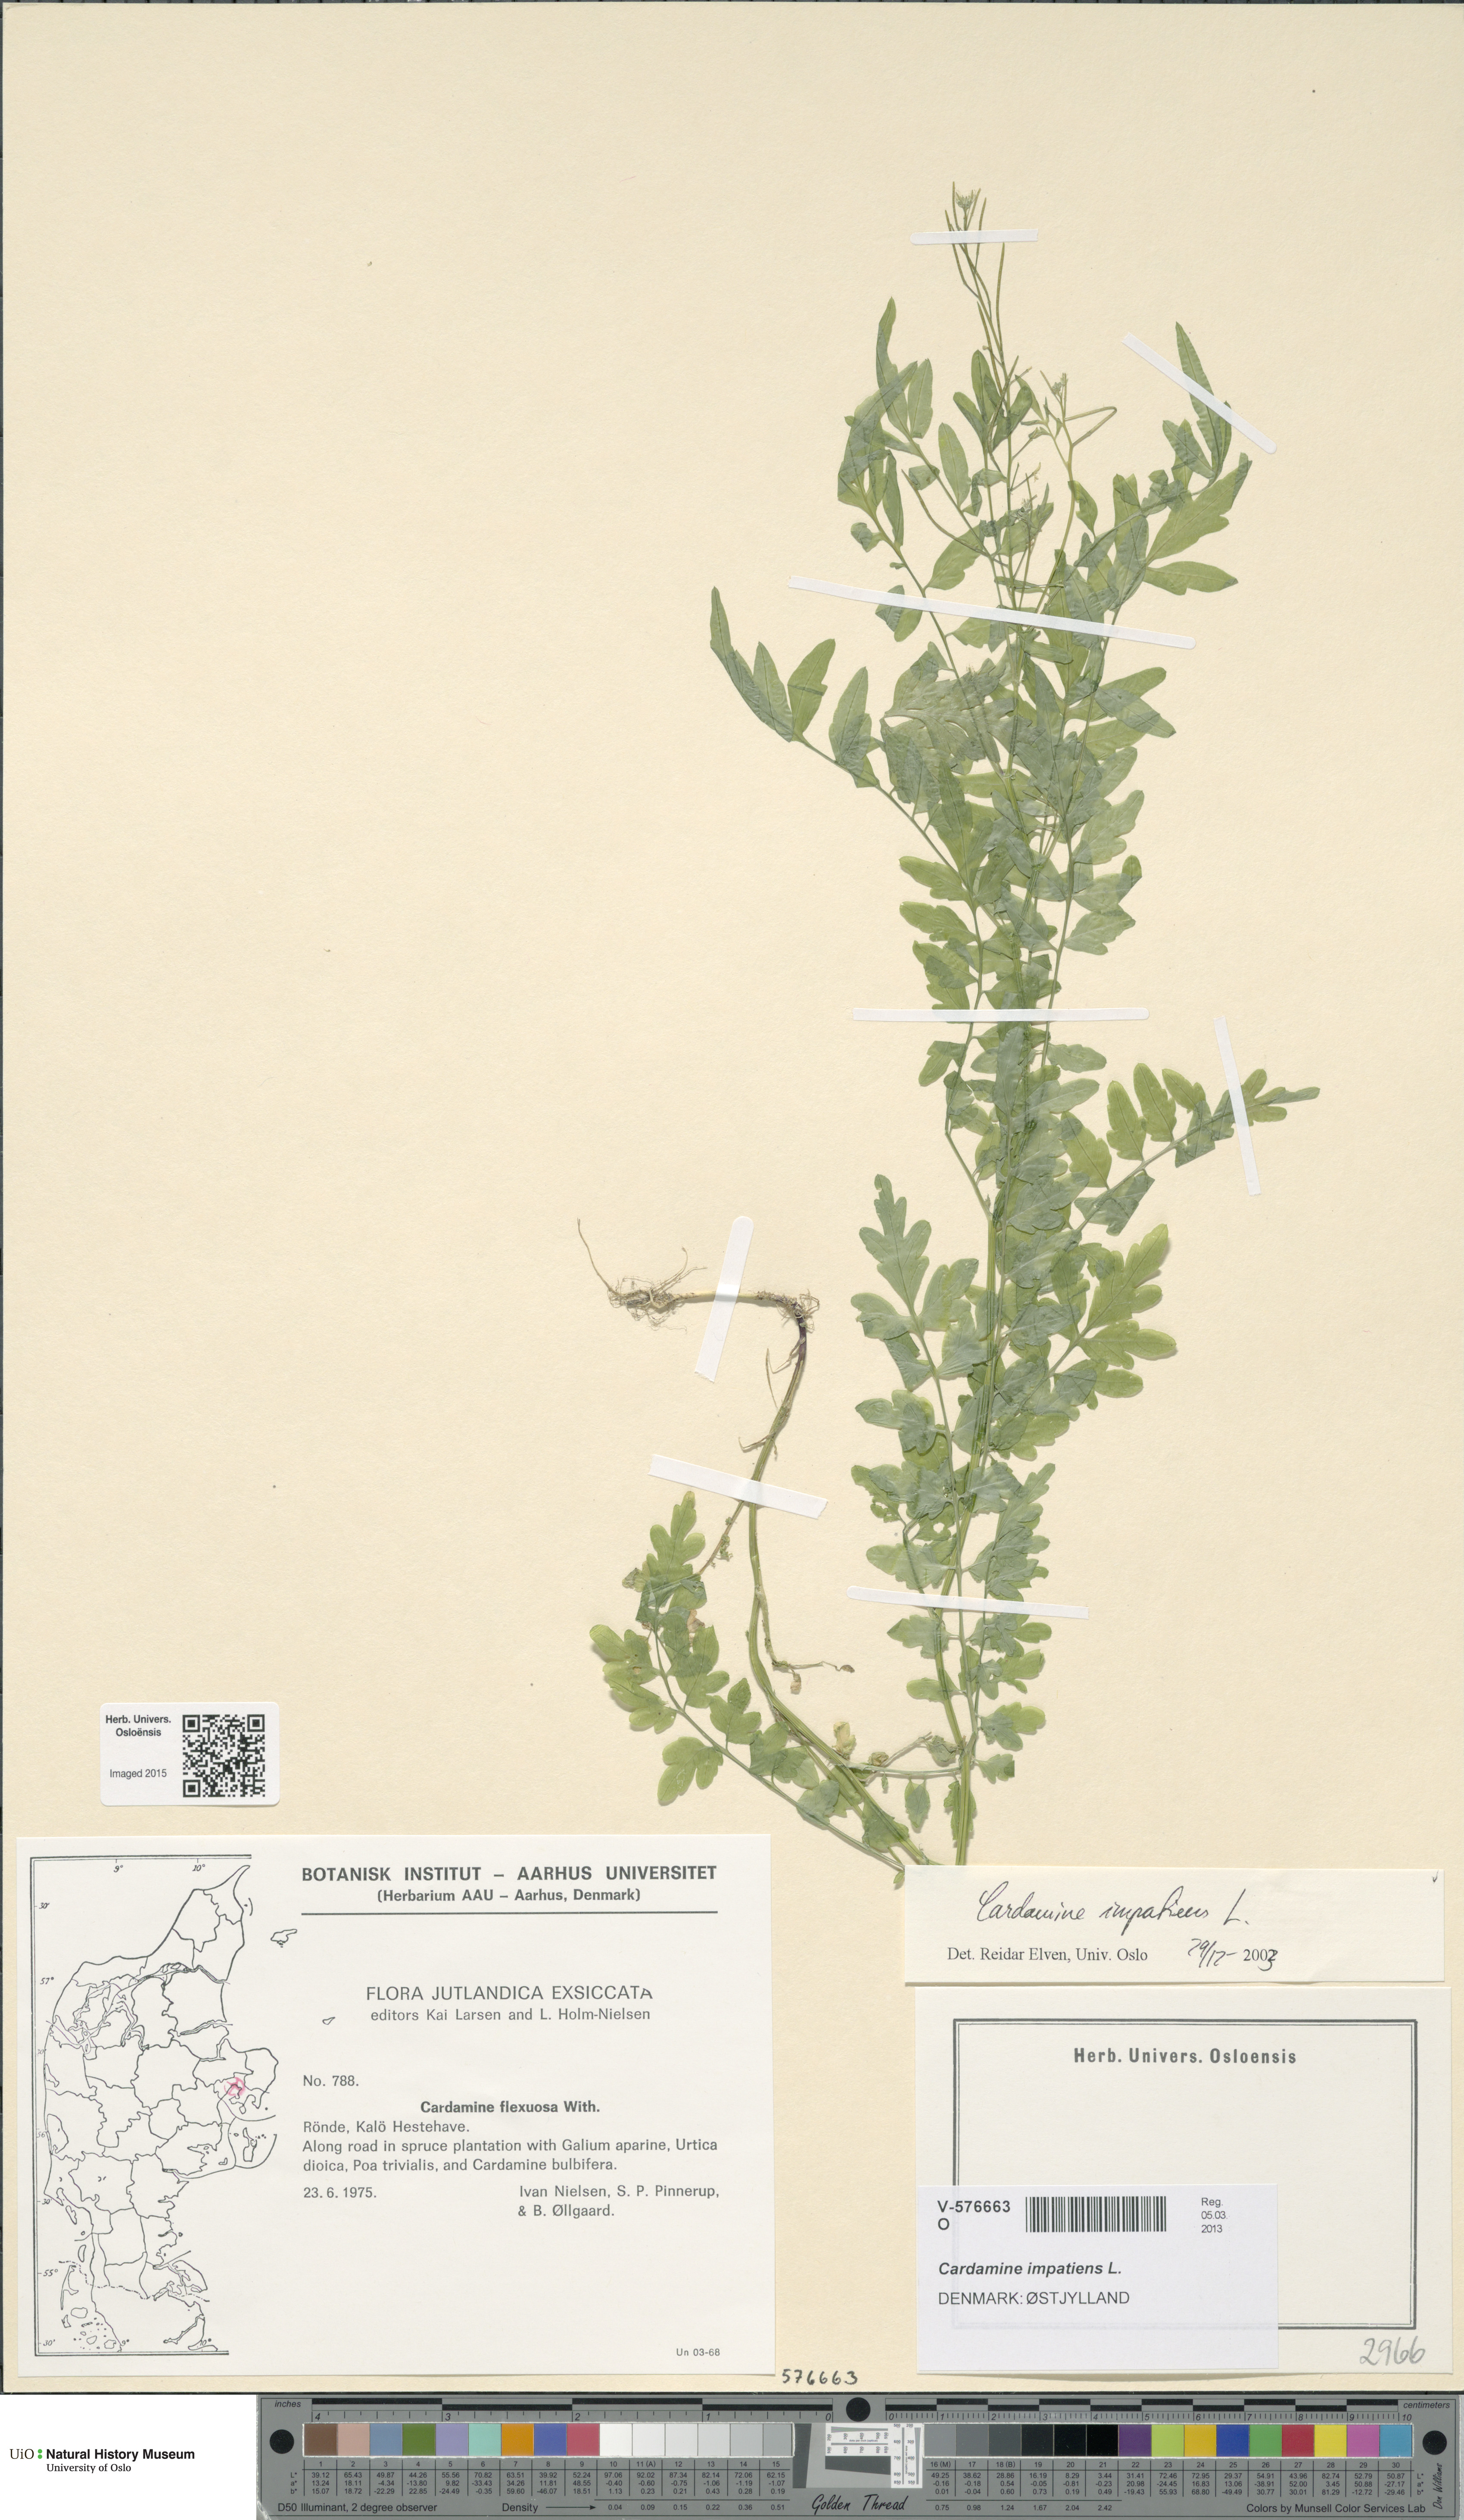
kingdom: Plantae
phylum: Tracheophyta
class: Magnoliopsida
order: Brassicales
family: Brassicaceae
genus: Cardamine
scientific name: Cardamine impatiens
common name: Narrow-leaved bitter-cress
